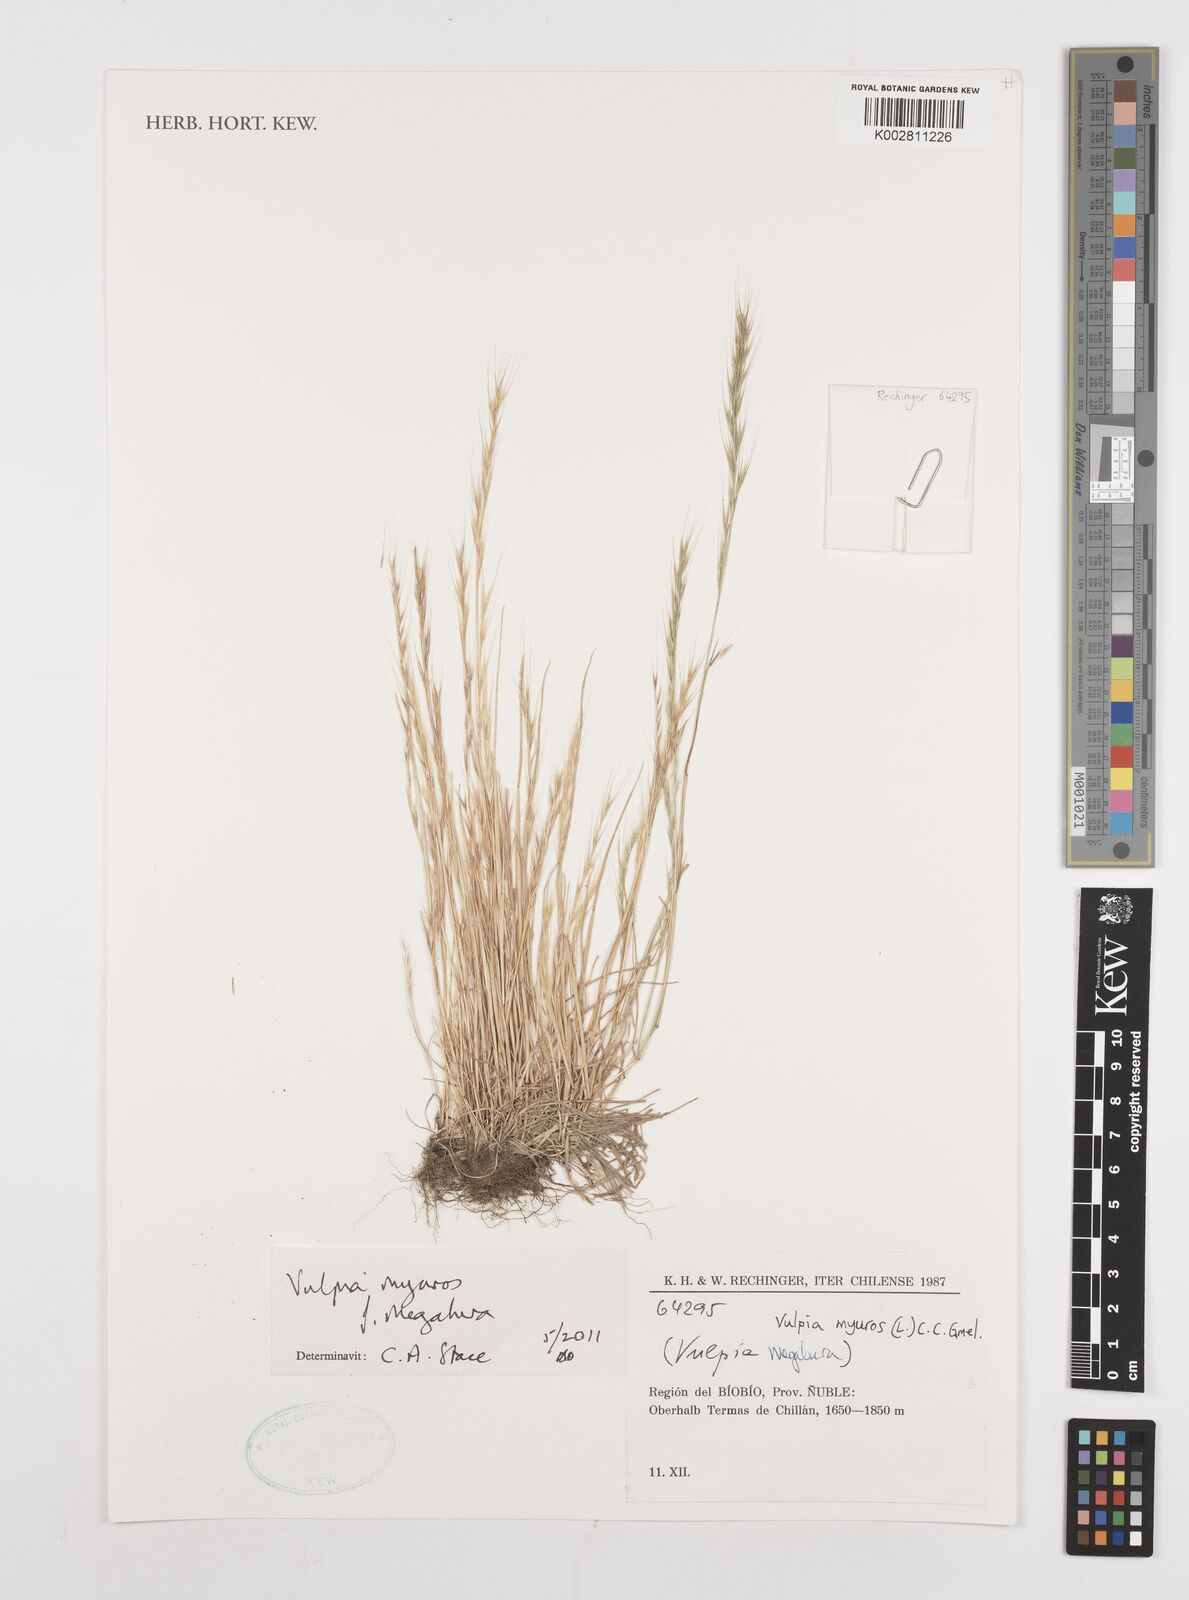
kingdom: Plantae
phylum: Tracheophyta
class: Liliopsida
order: Poales
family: Poaceae
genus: Festuca
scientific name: Festuca myuros
